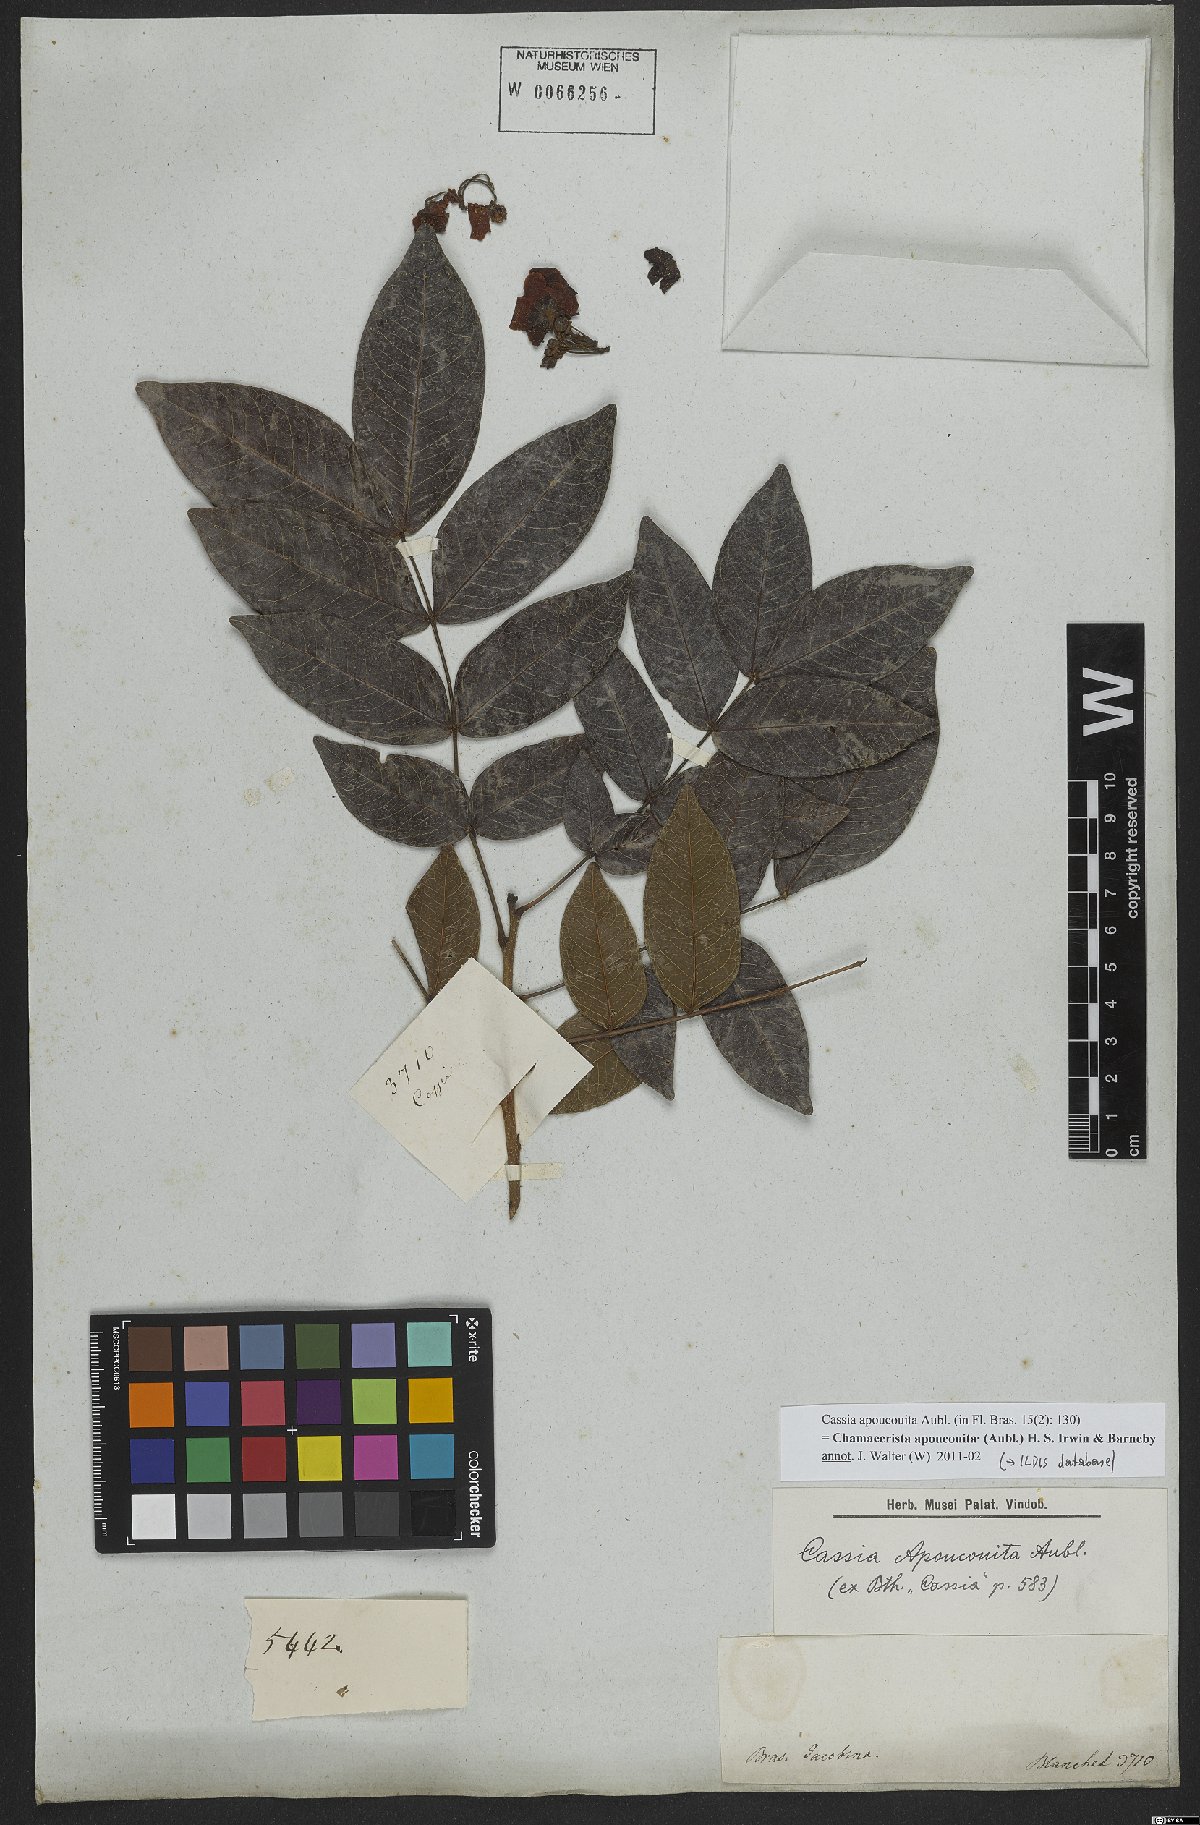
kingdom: Plantae
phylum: Tracheophyta
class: Magnoliopsida
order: Fabales
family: Fabaceae
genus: Chamaecrista
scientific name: Chamaecrista apoucouita
